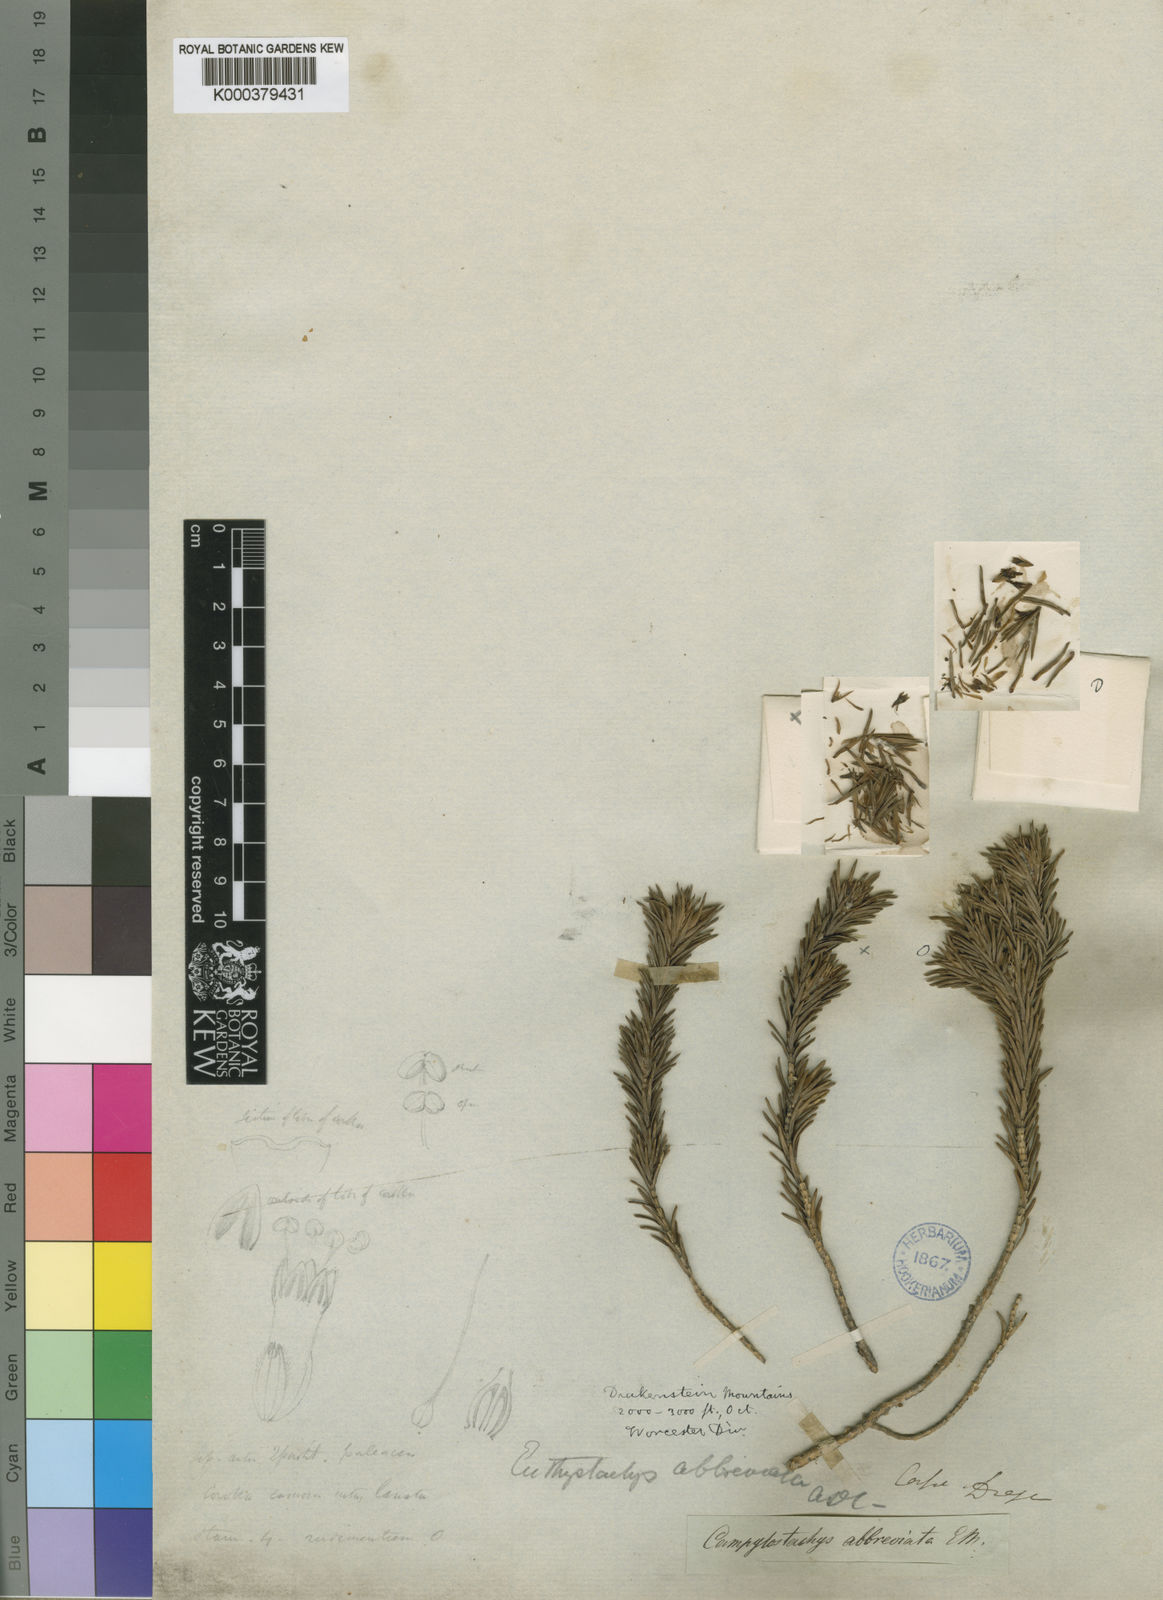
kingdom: Plantae
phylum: Tracheophyta
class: Magnoliopsida
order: Lamiales
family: Stilbaceae
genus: Euthystachys
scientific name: Euthystachys abbreviata
